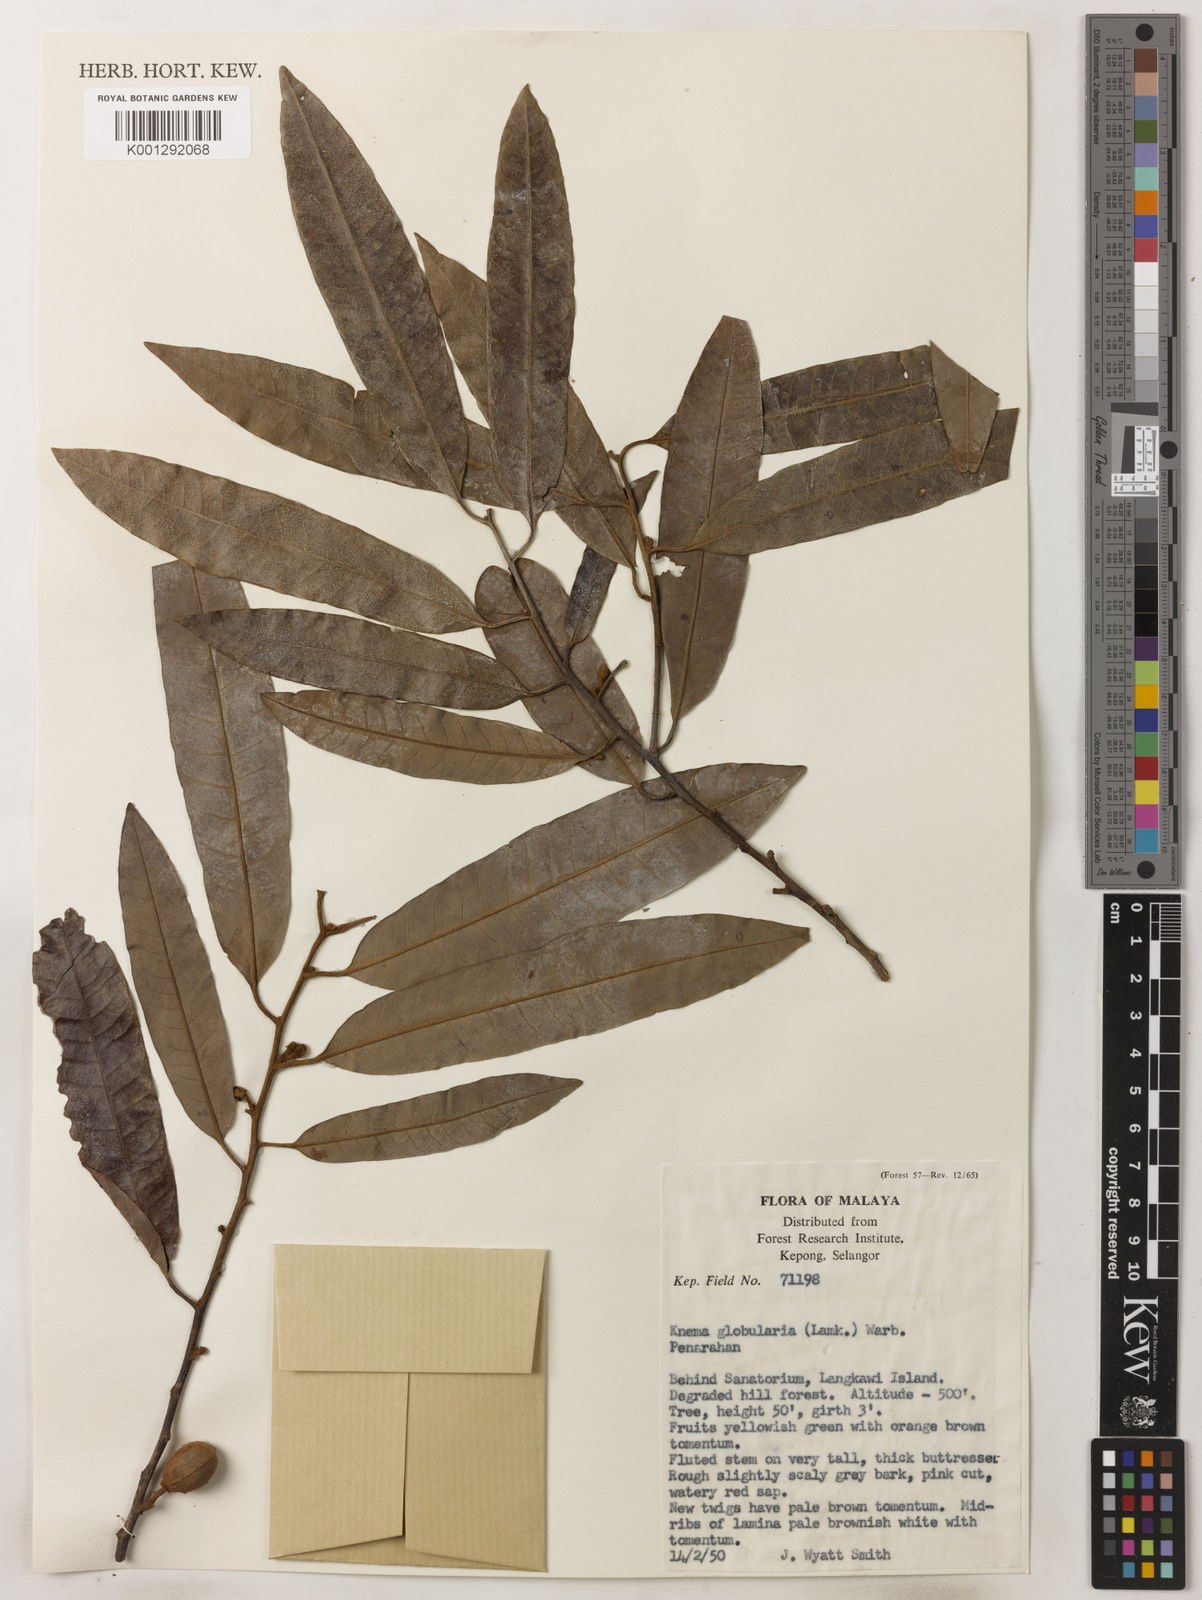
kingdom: Plantae
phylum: Tracheophyta
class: Magnoliopsida
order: Magnoliales
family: Myristicaceae
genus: Knema
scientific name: Knema globularia
